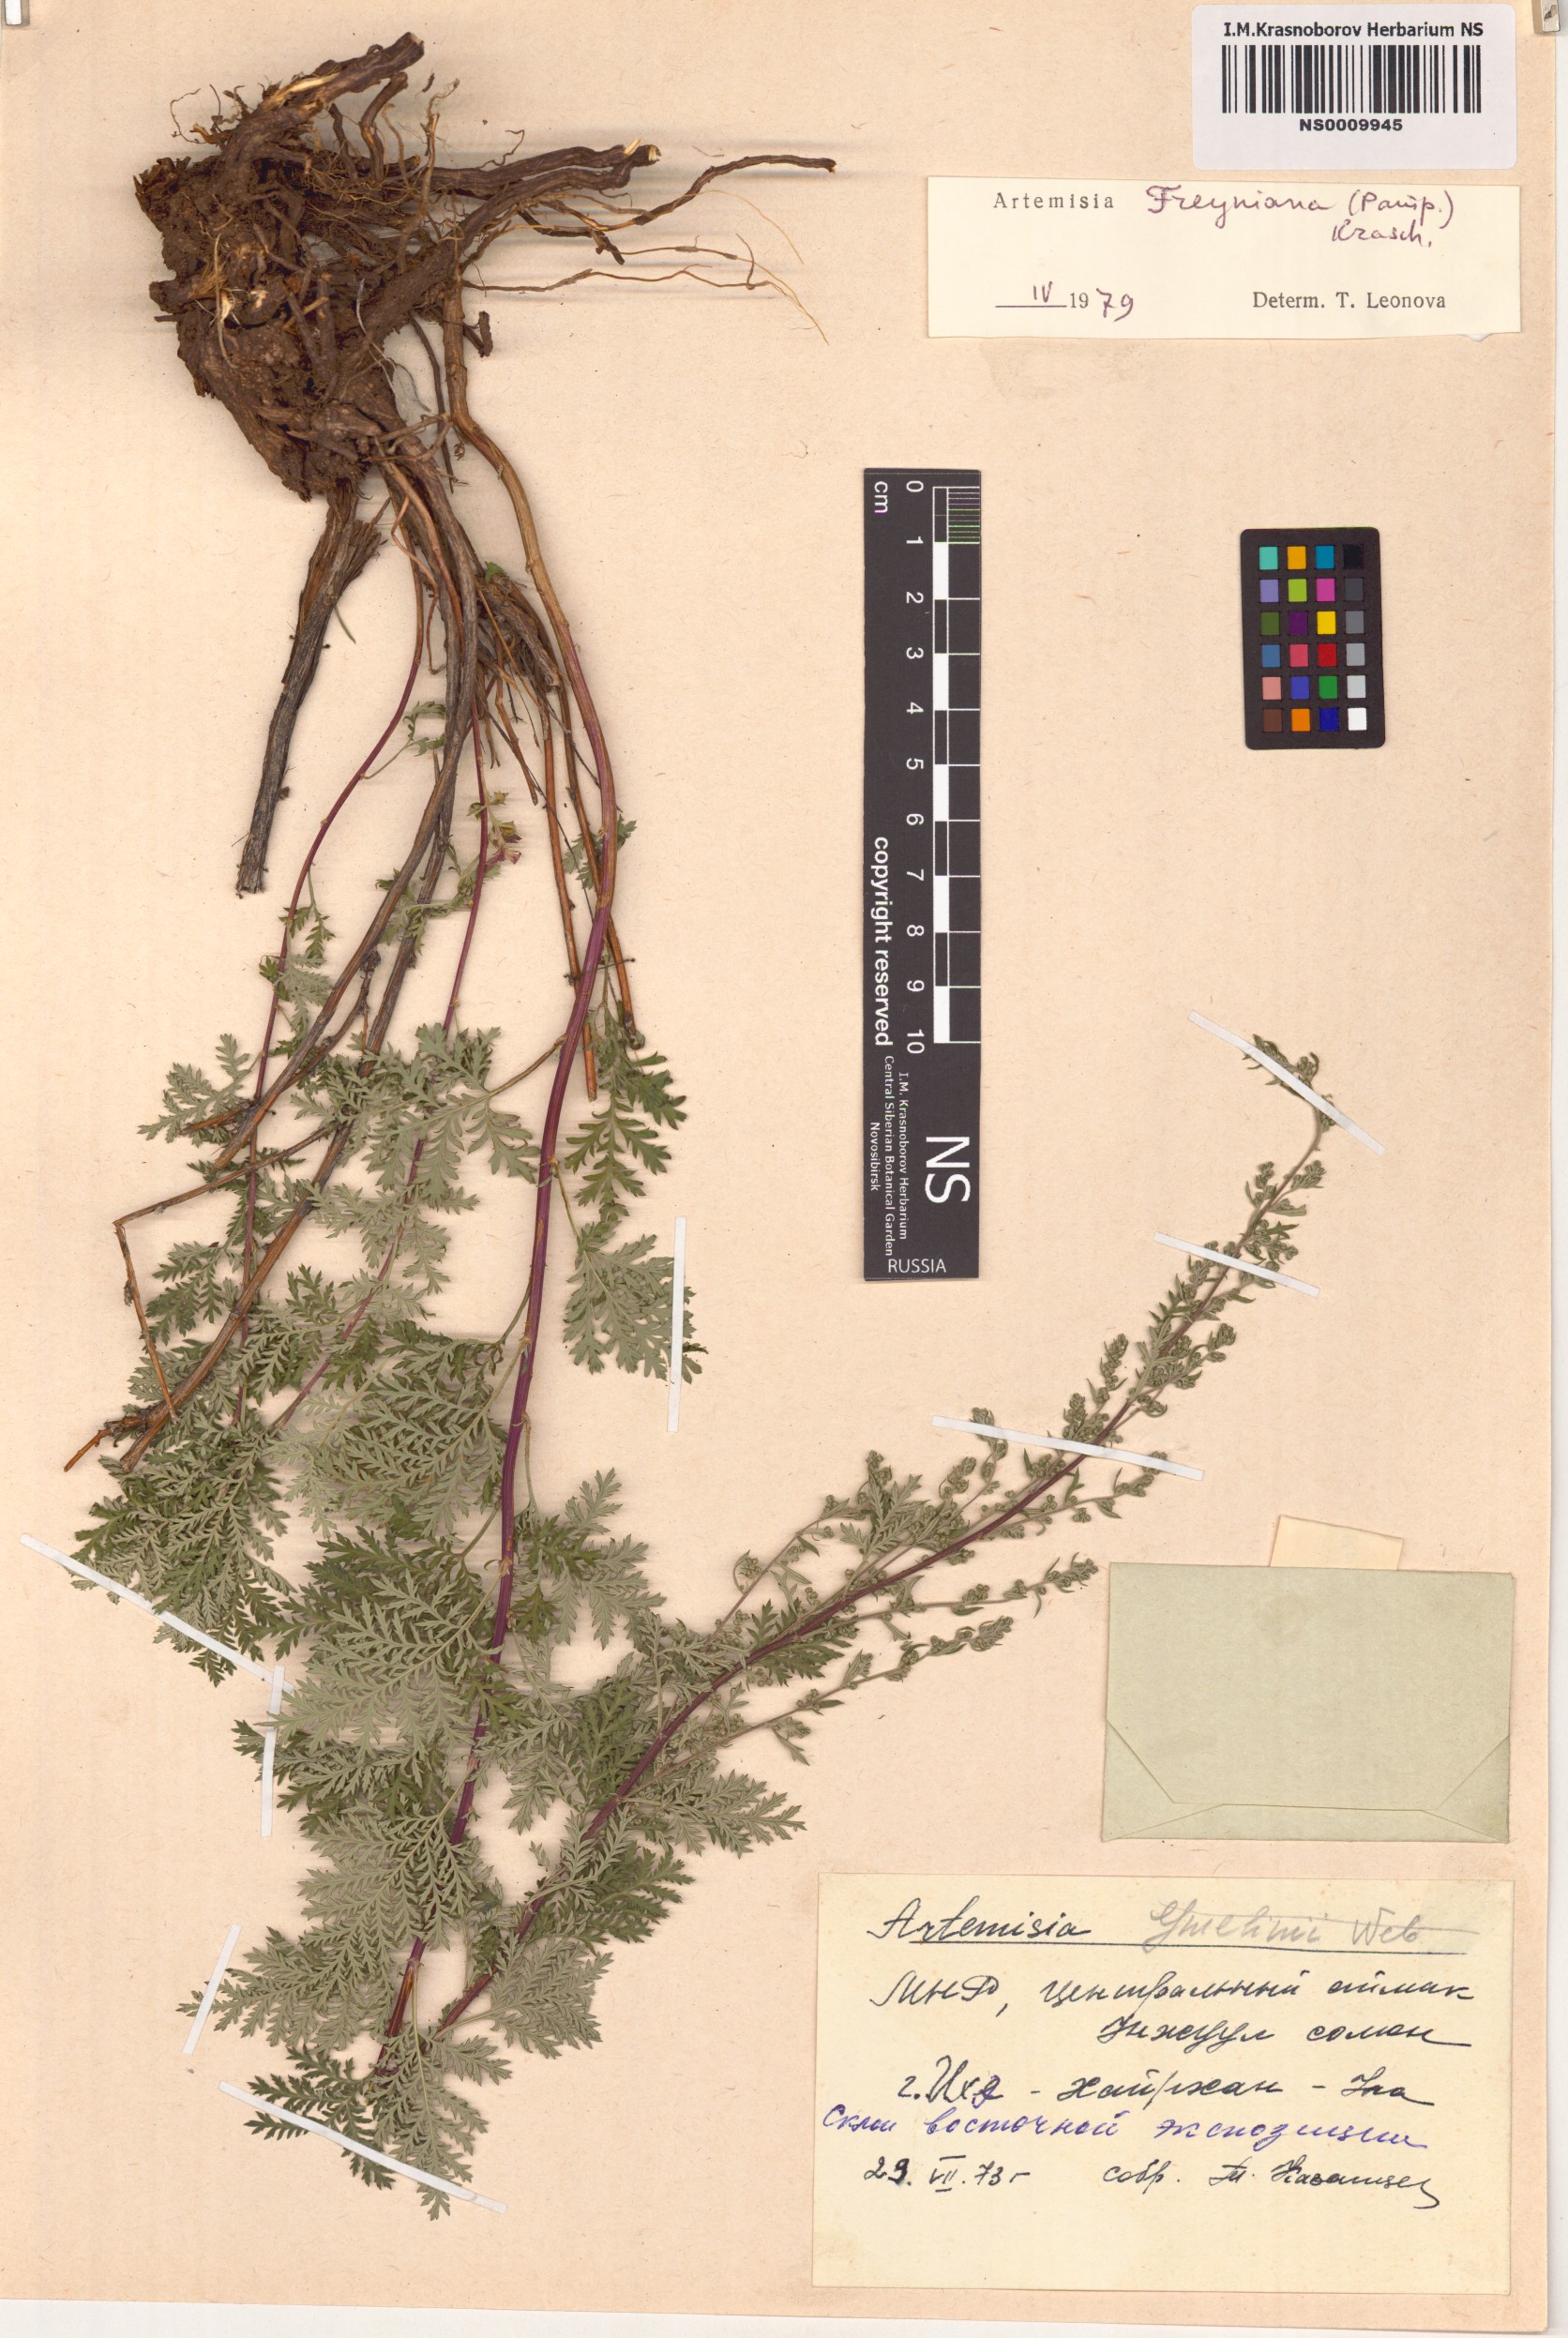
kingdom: Plantae
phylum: Tracheophyta
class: Magnoliopsida
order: Asterales
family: Asteraceae
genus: Artemisia
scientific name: Artemisia freyniana
